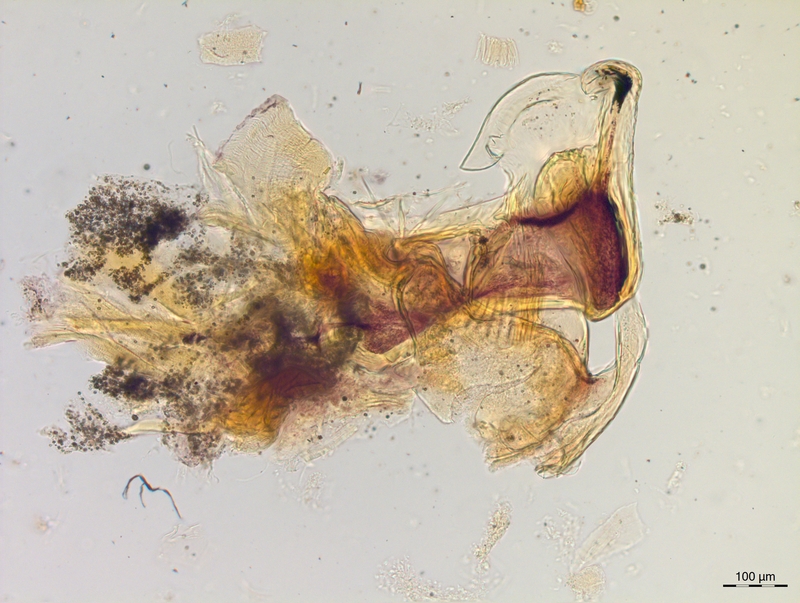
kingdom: Animalia
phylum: Arthropoda
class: Diplopoda
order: Chordeumatida
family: Craspedosomatidae
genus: Craspedosoma
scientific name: Craspedosoma slavum
